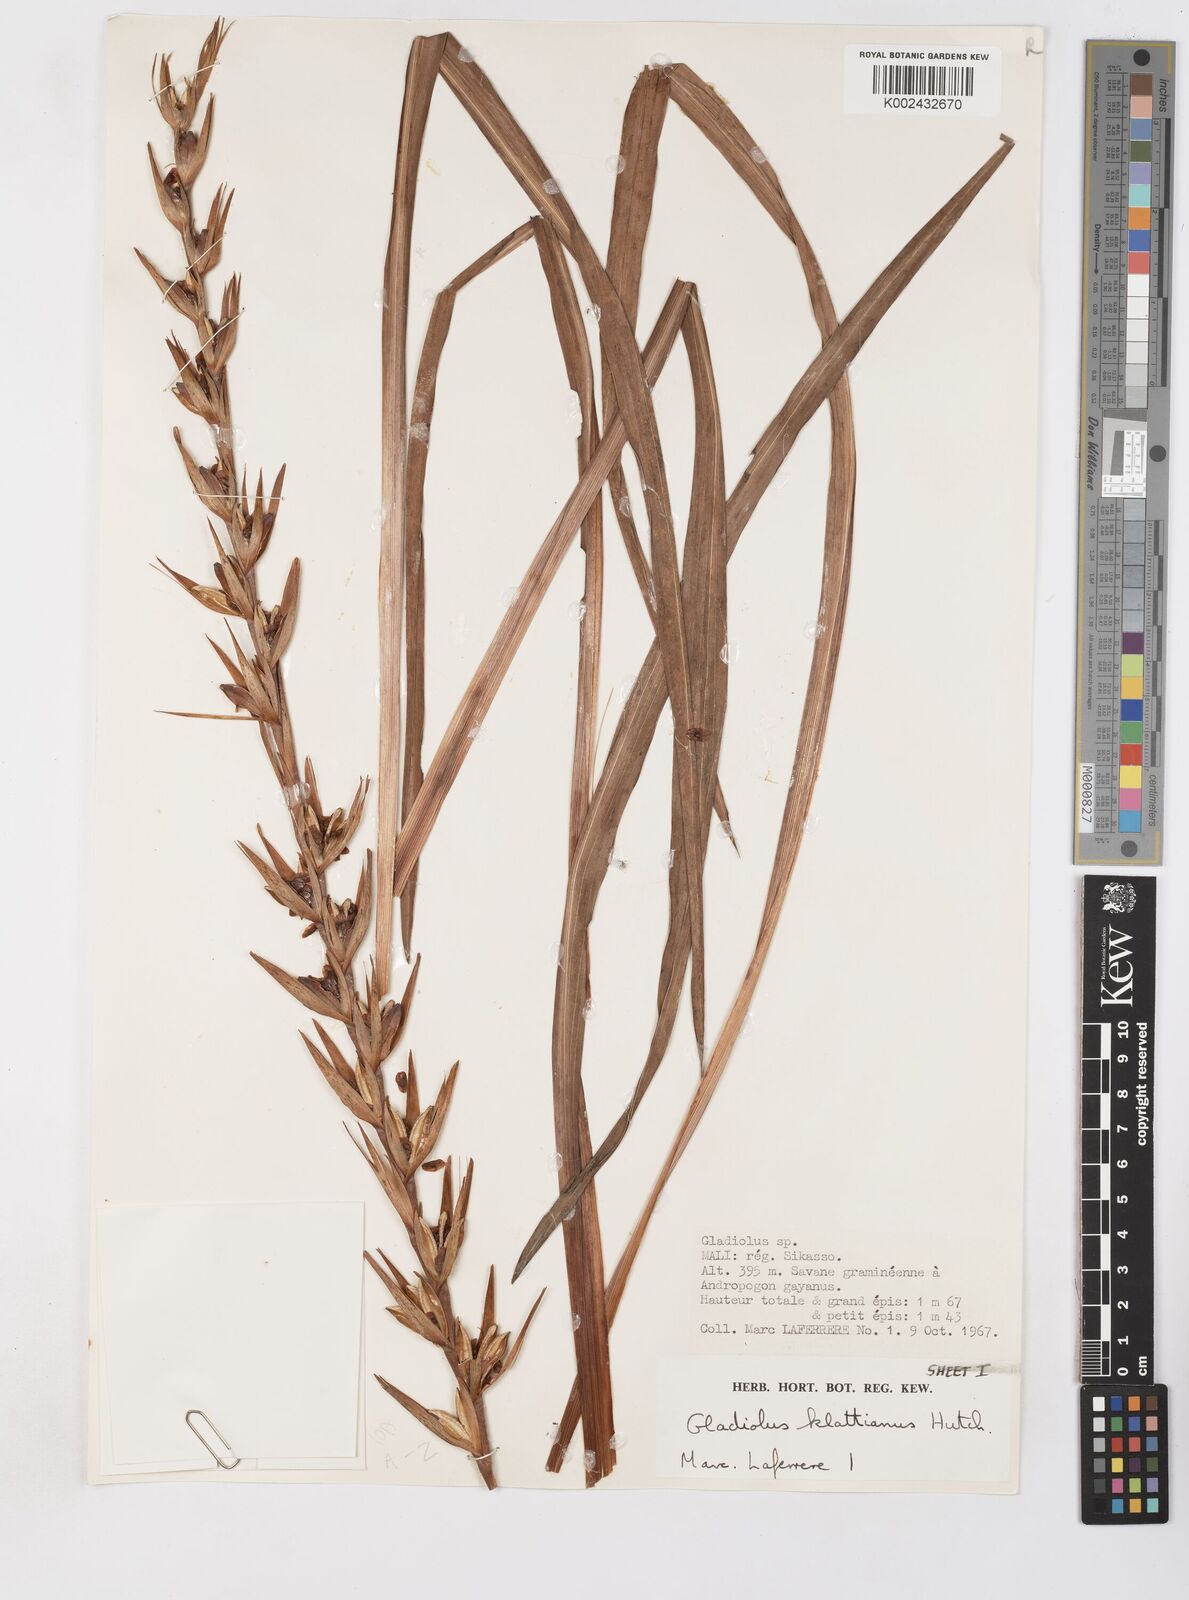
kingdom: Plantae
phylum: Tracheophyta
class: Liliopsida
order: Asparagales
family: Iridaceae
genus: Gladiolus
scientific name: Gladiolus gregarius
